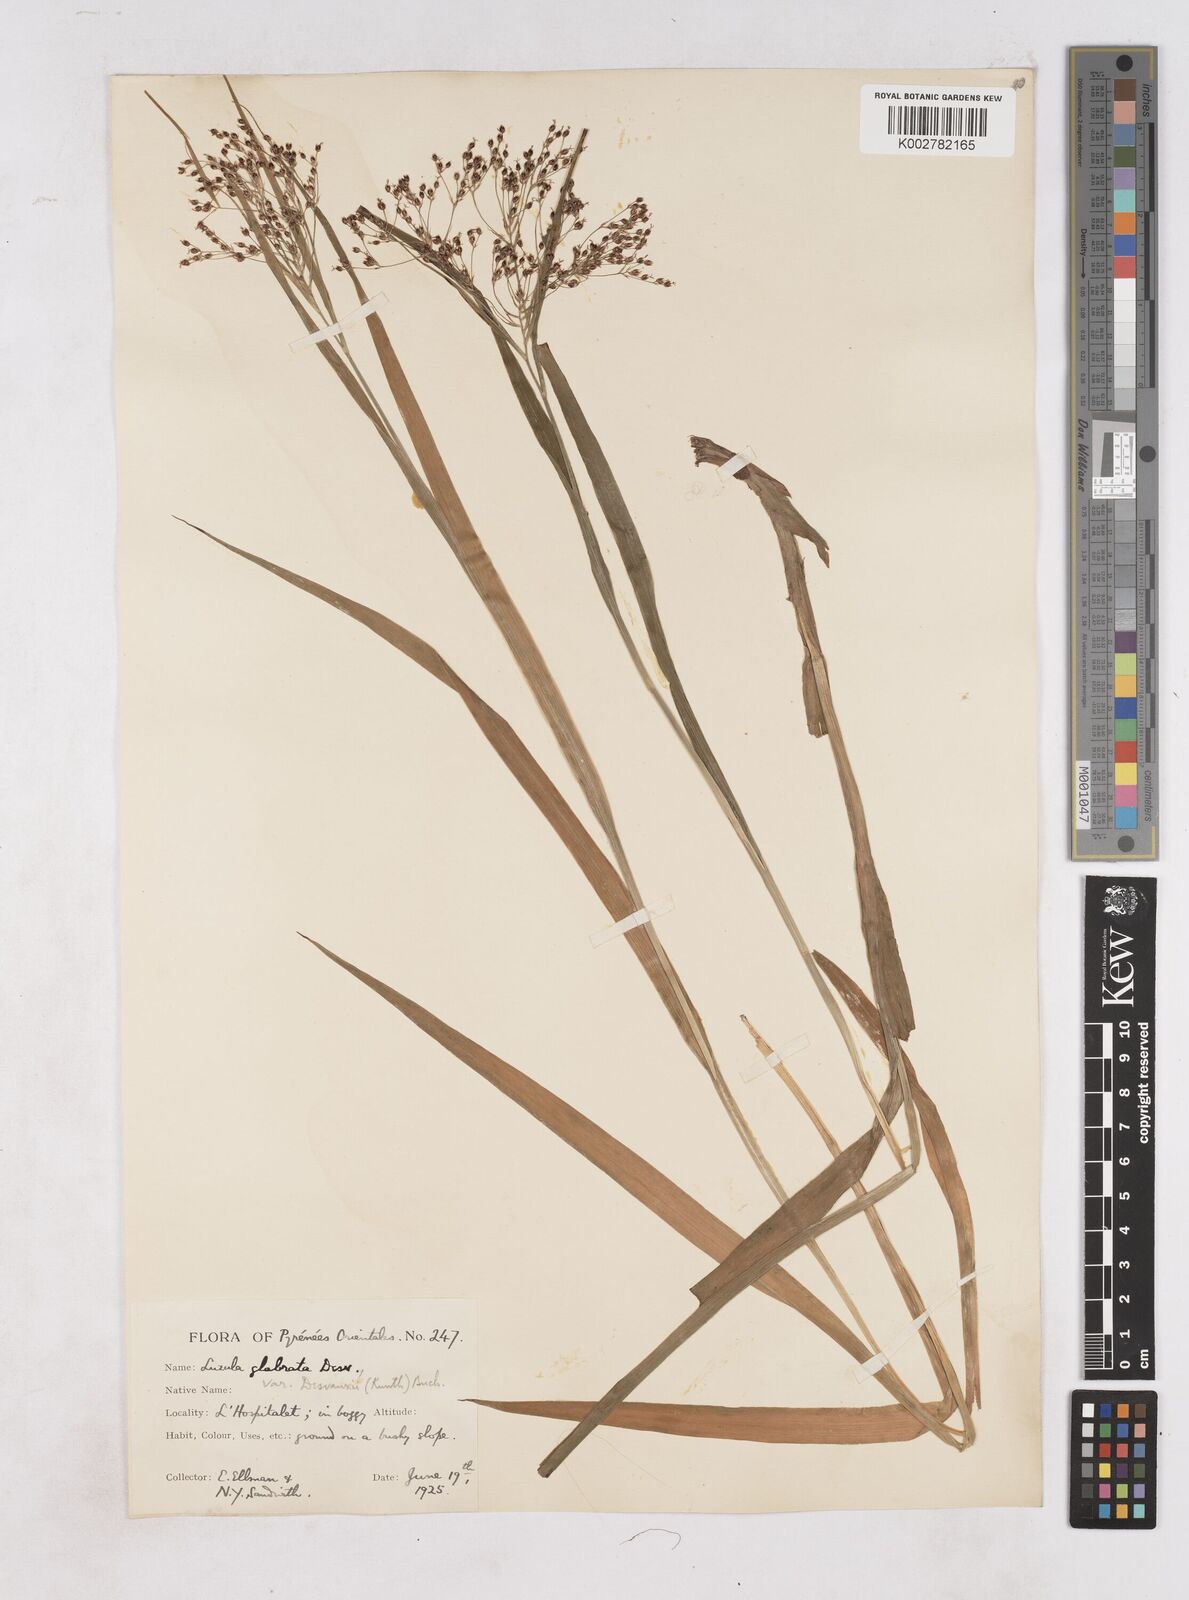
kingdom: Plantae
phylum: Tracheophyta
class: Liliopsida
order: Poales
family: Juncaceae
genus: Luzula
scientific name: Luzula glabrata
